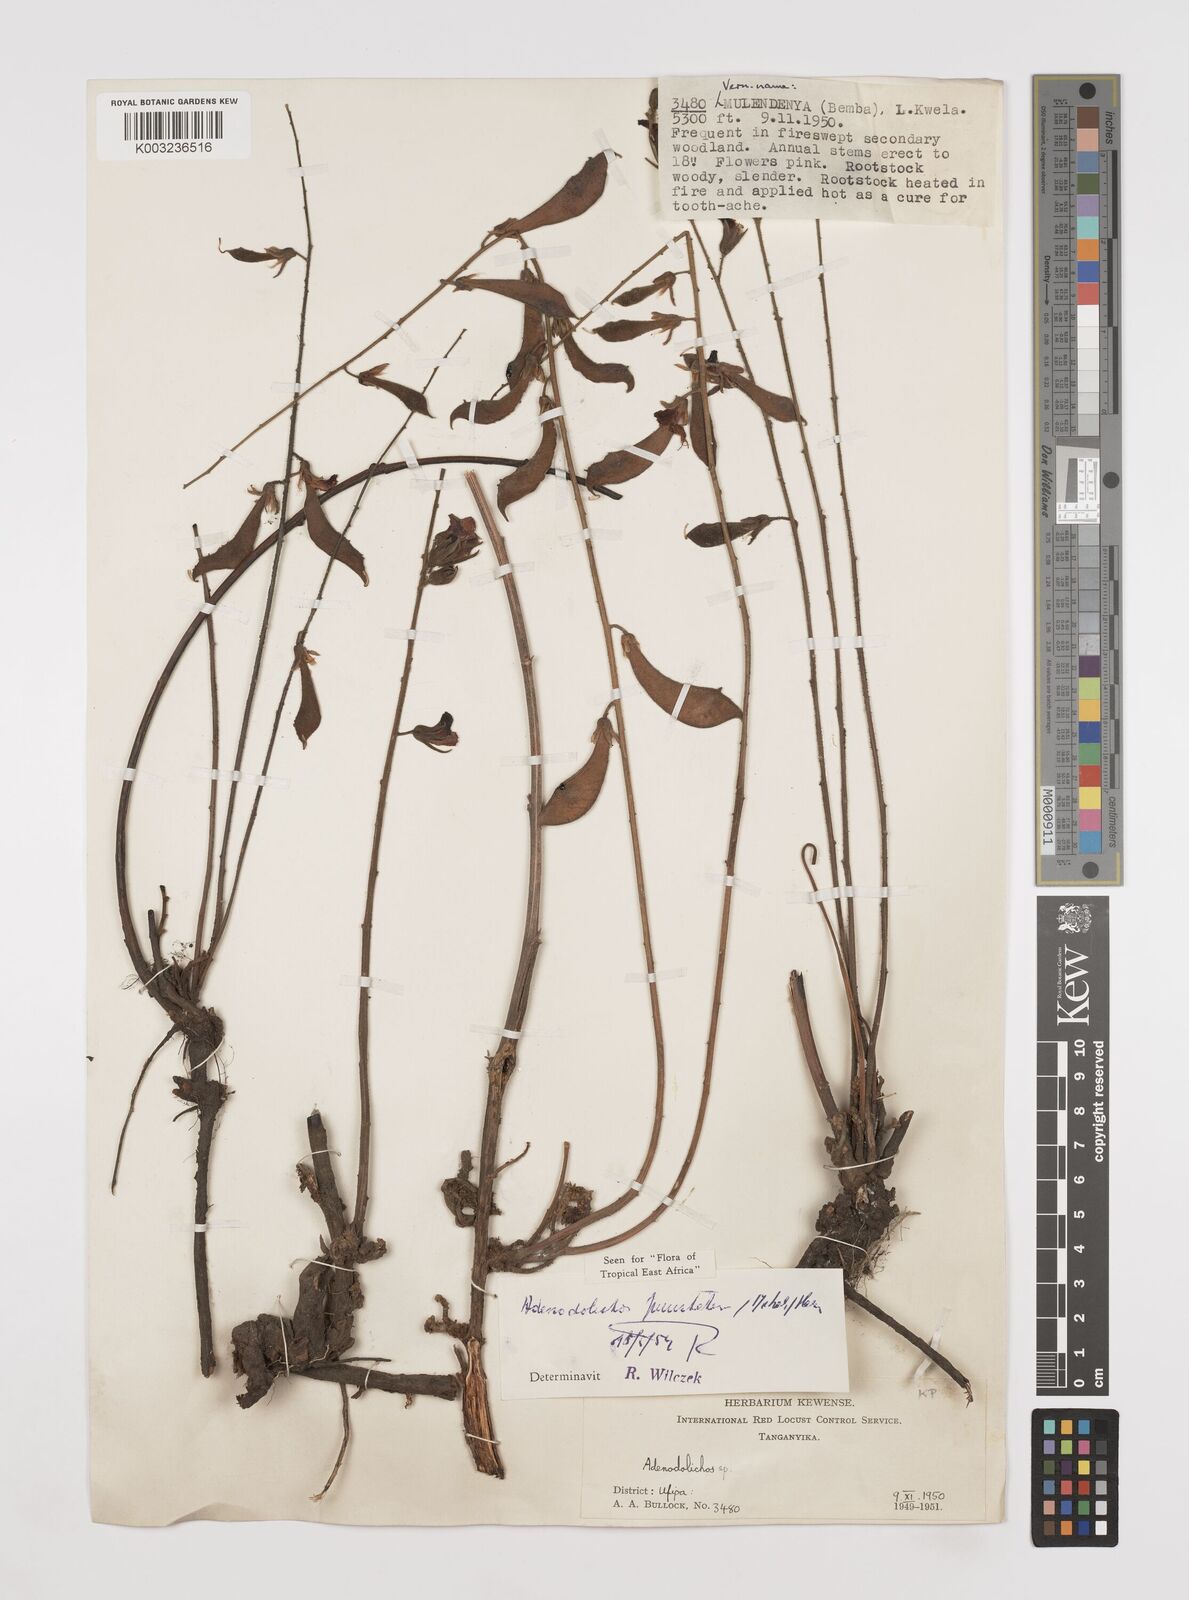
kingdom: Plantae
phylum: Tracheophyta
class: Magnoliopsida
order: Fabales
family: Fabaceae
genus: Adenodolichos
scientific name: Adenodolichos punctatus
